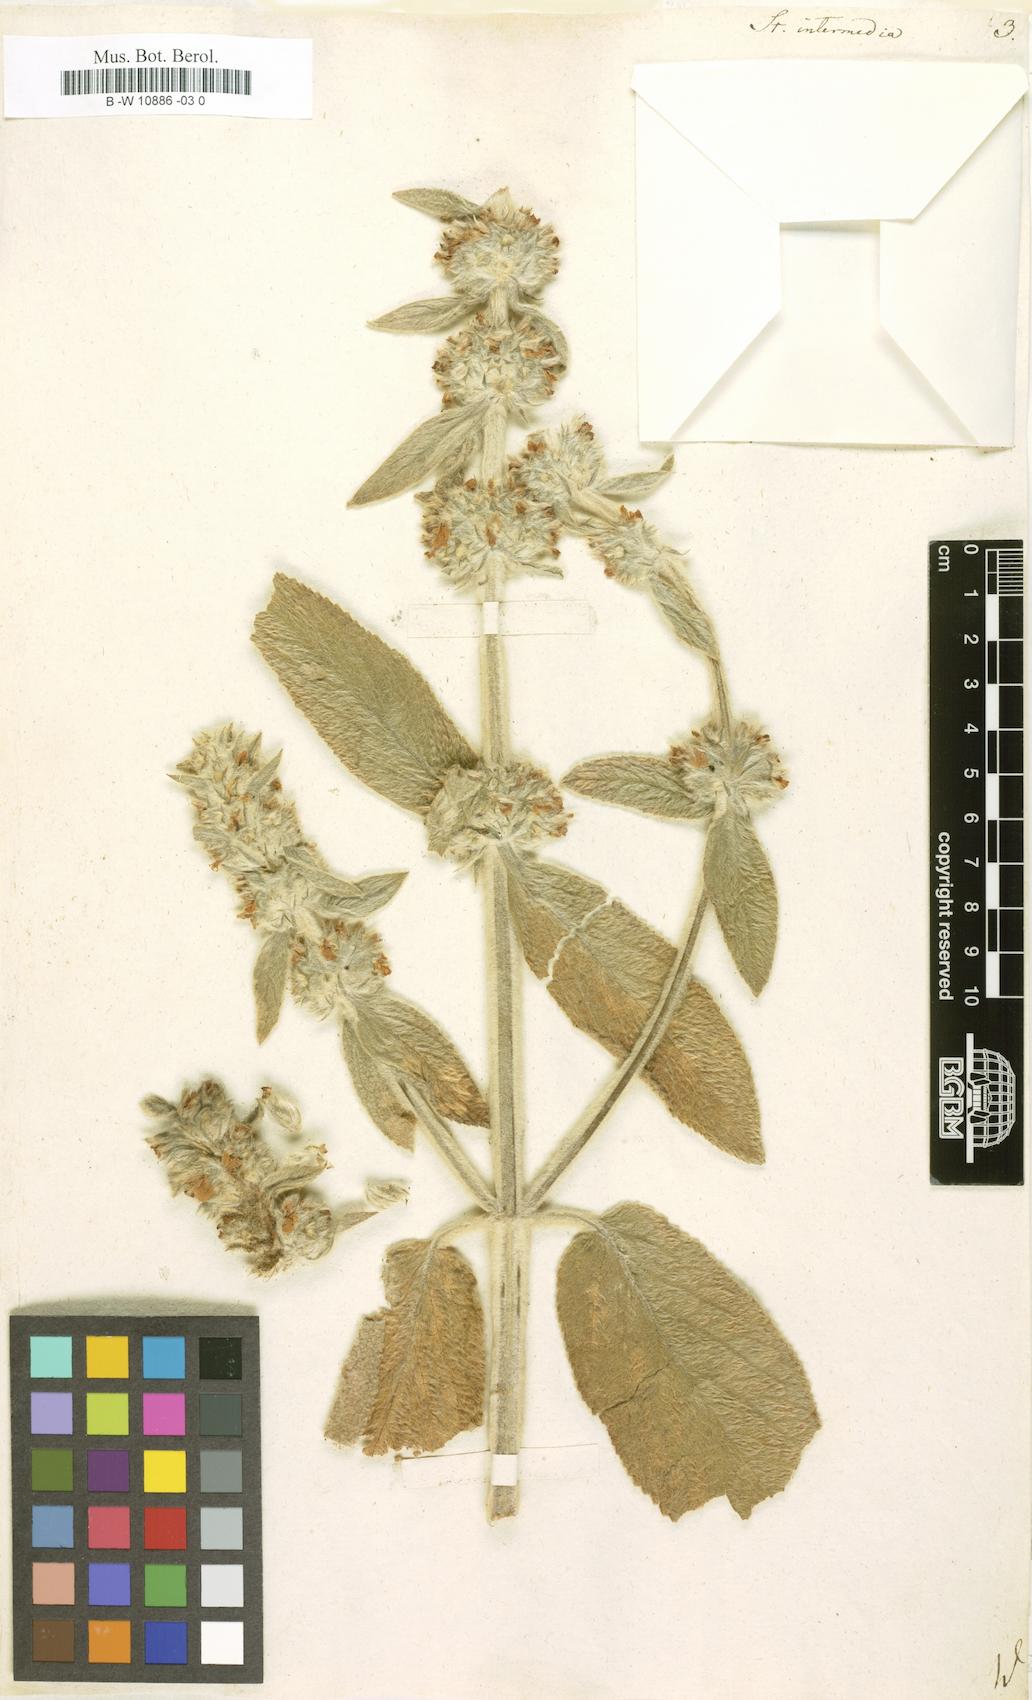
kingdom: Plantae
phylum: Tracheophyta
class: Magnoliopsida
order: Lamiales
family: Lamiaceae
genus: Stachys
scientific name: Stachys intermedia
